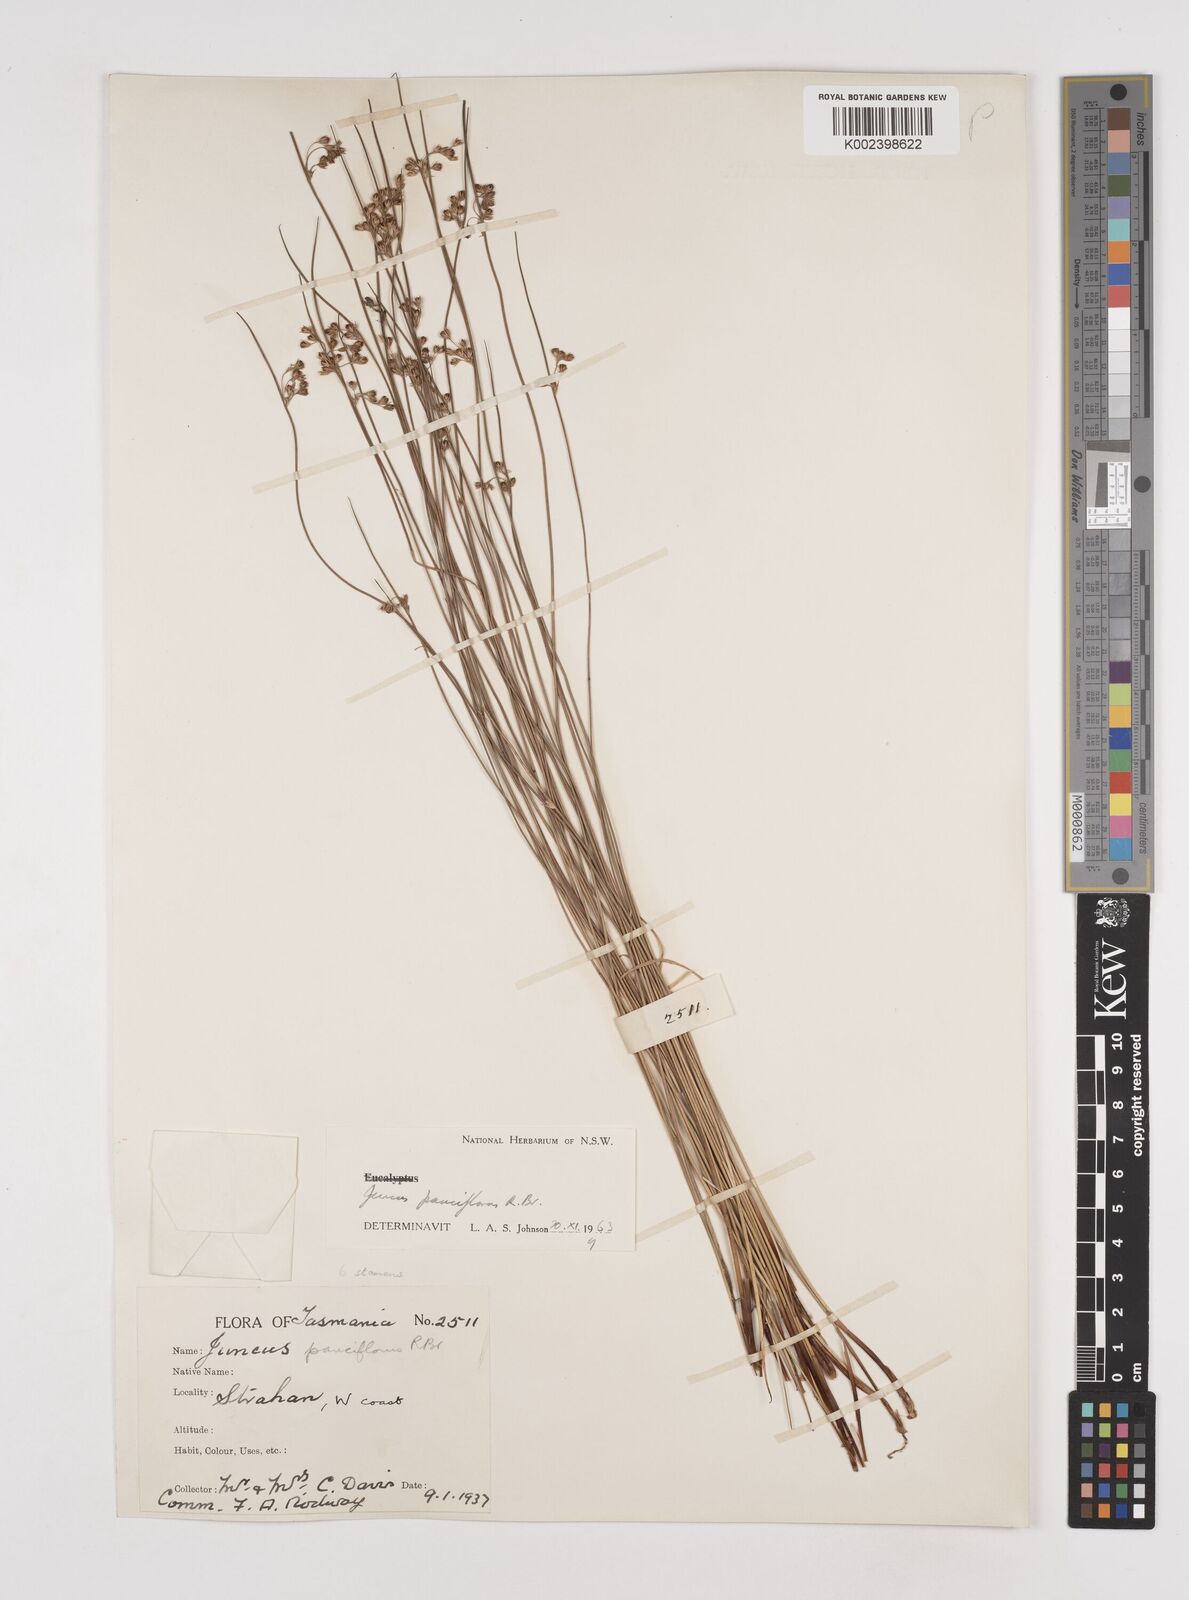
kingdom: Plantae
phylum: Tracheophyta
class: Liliopsida
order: Poales
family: Juncaceae
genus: Juncus
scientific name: Juncus pauciflorus
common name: Loose-flowered rush
